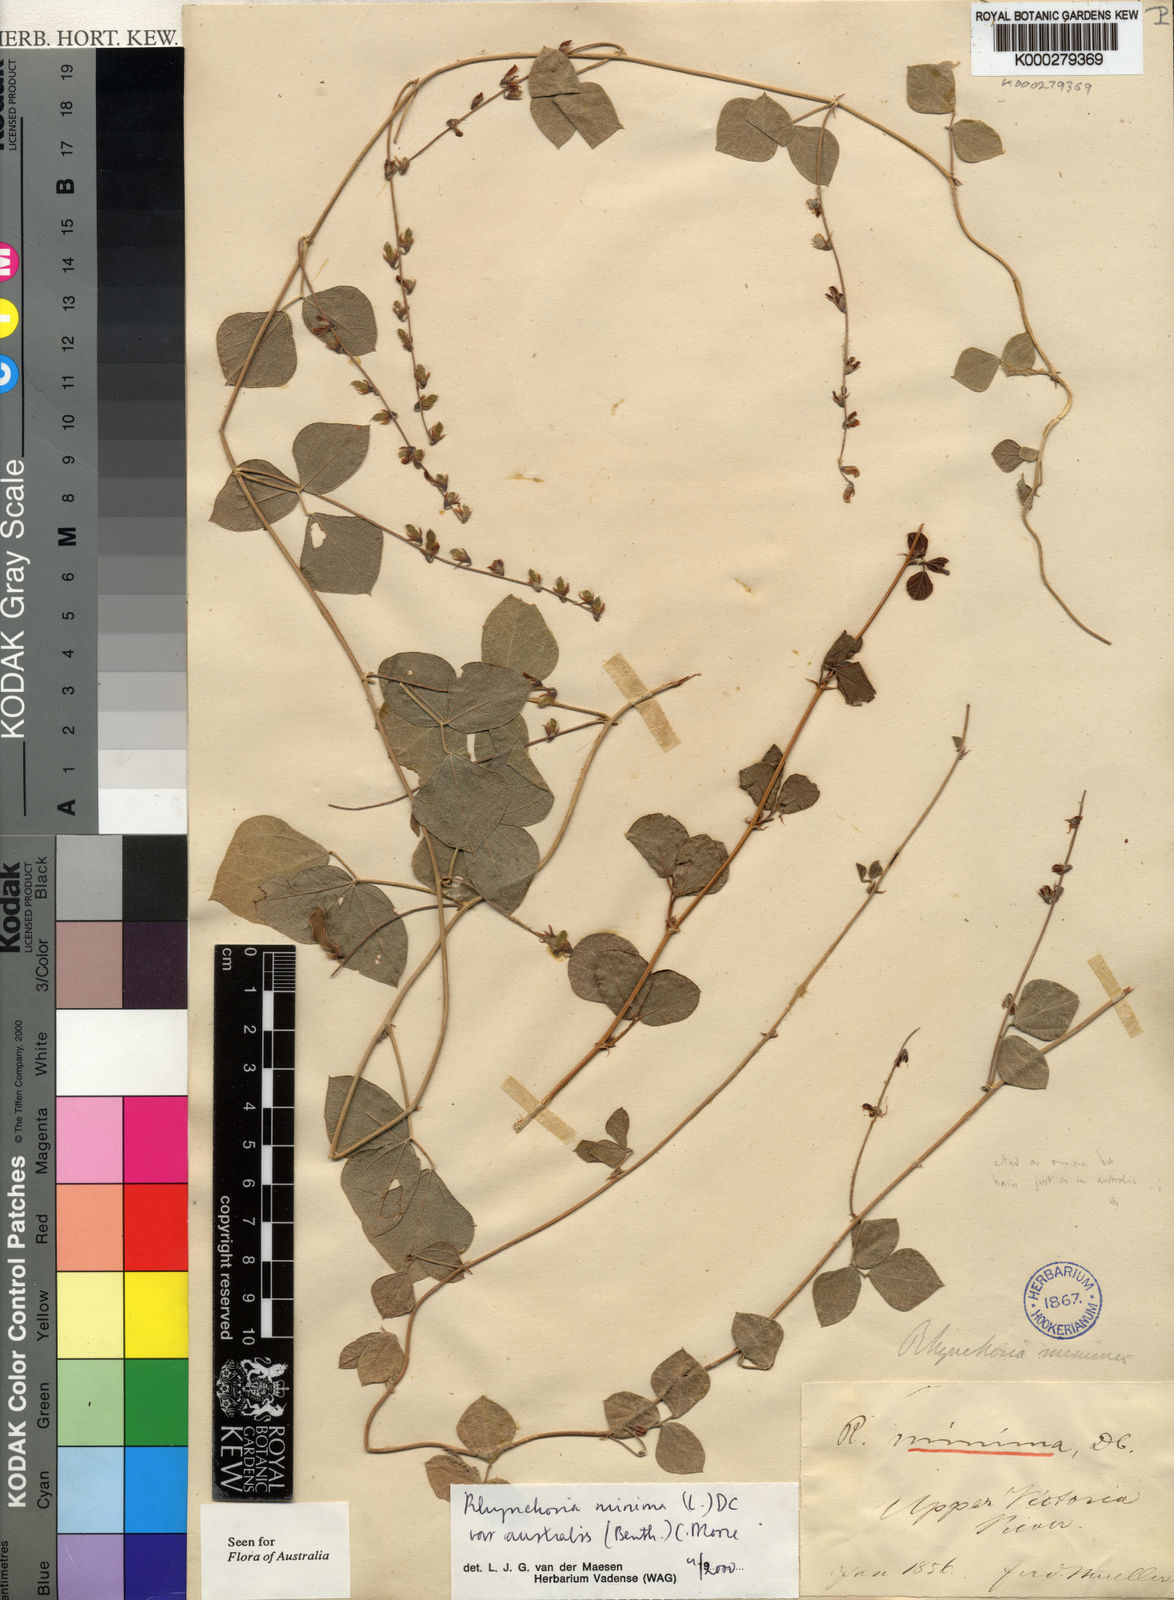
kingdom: Plantae
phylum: Tracheophyta
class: Magnoliopsida
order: Fabales
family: Fabaceae
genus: Rhynchosia
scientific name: Rhynchosia australis
